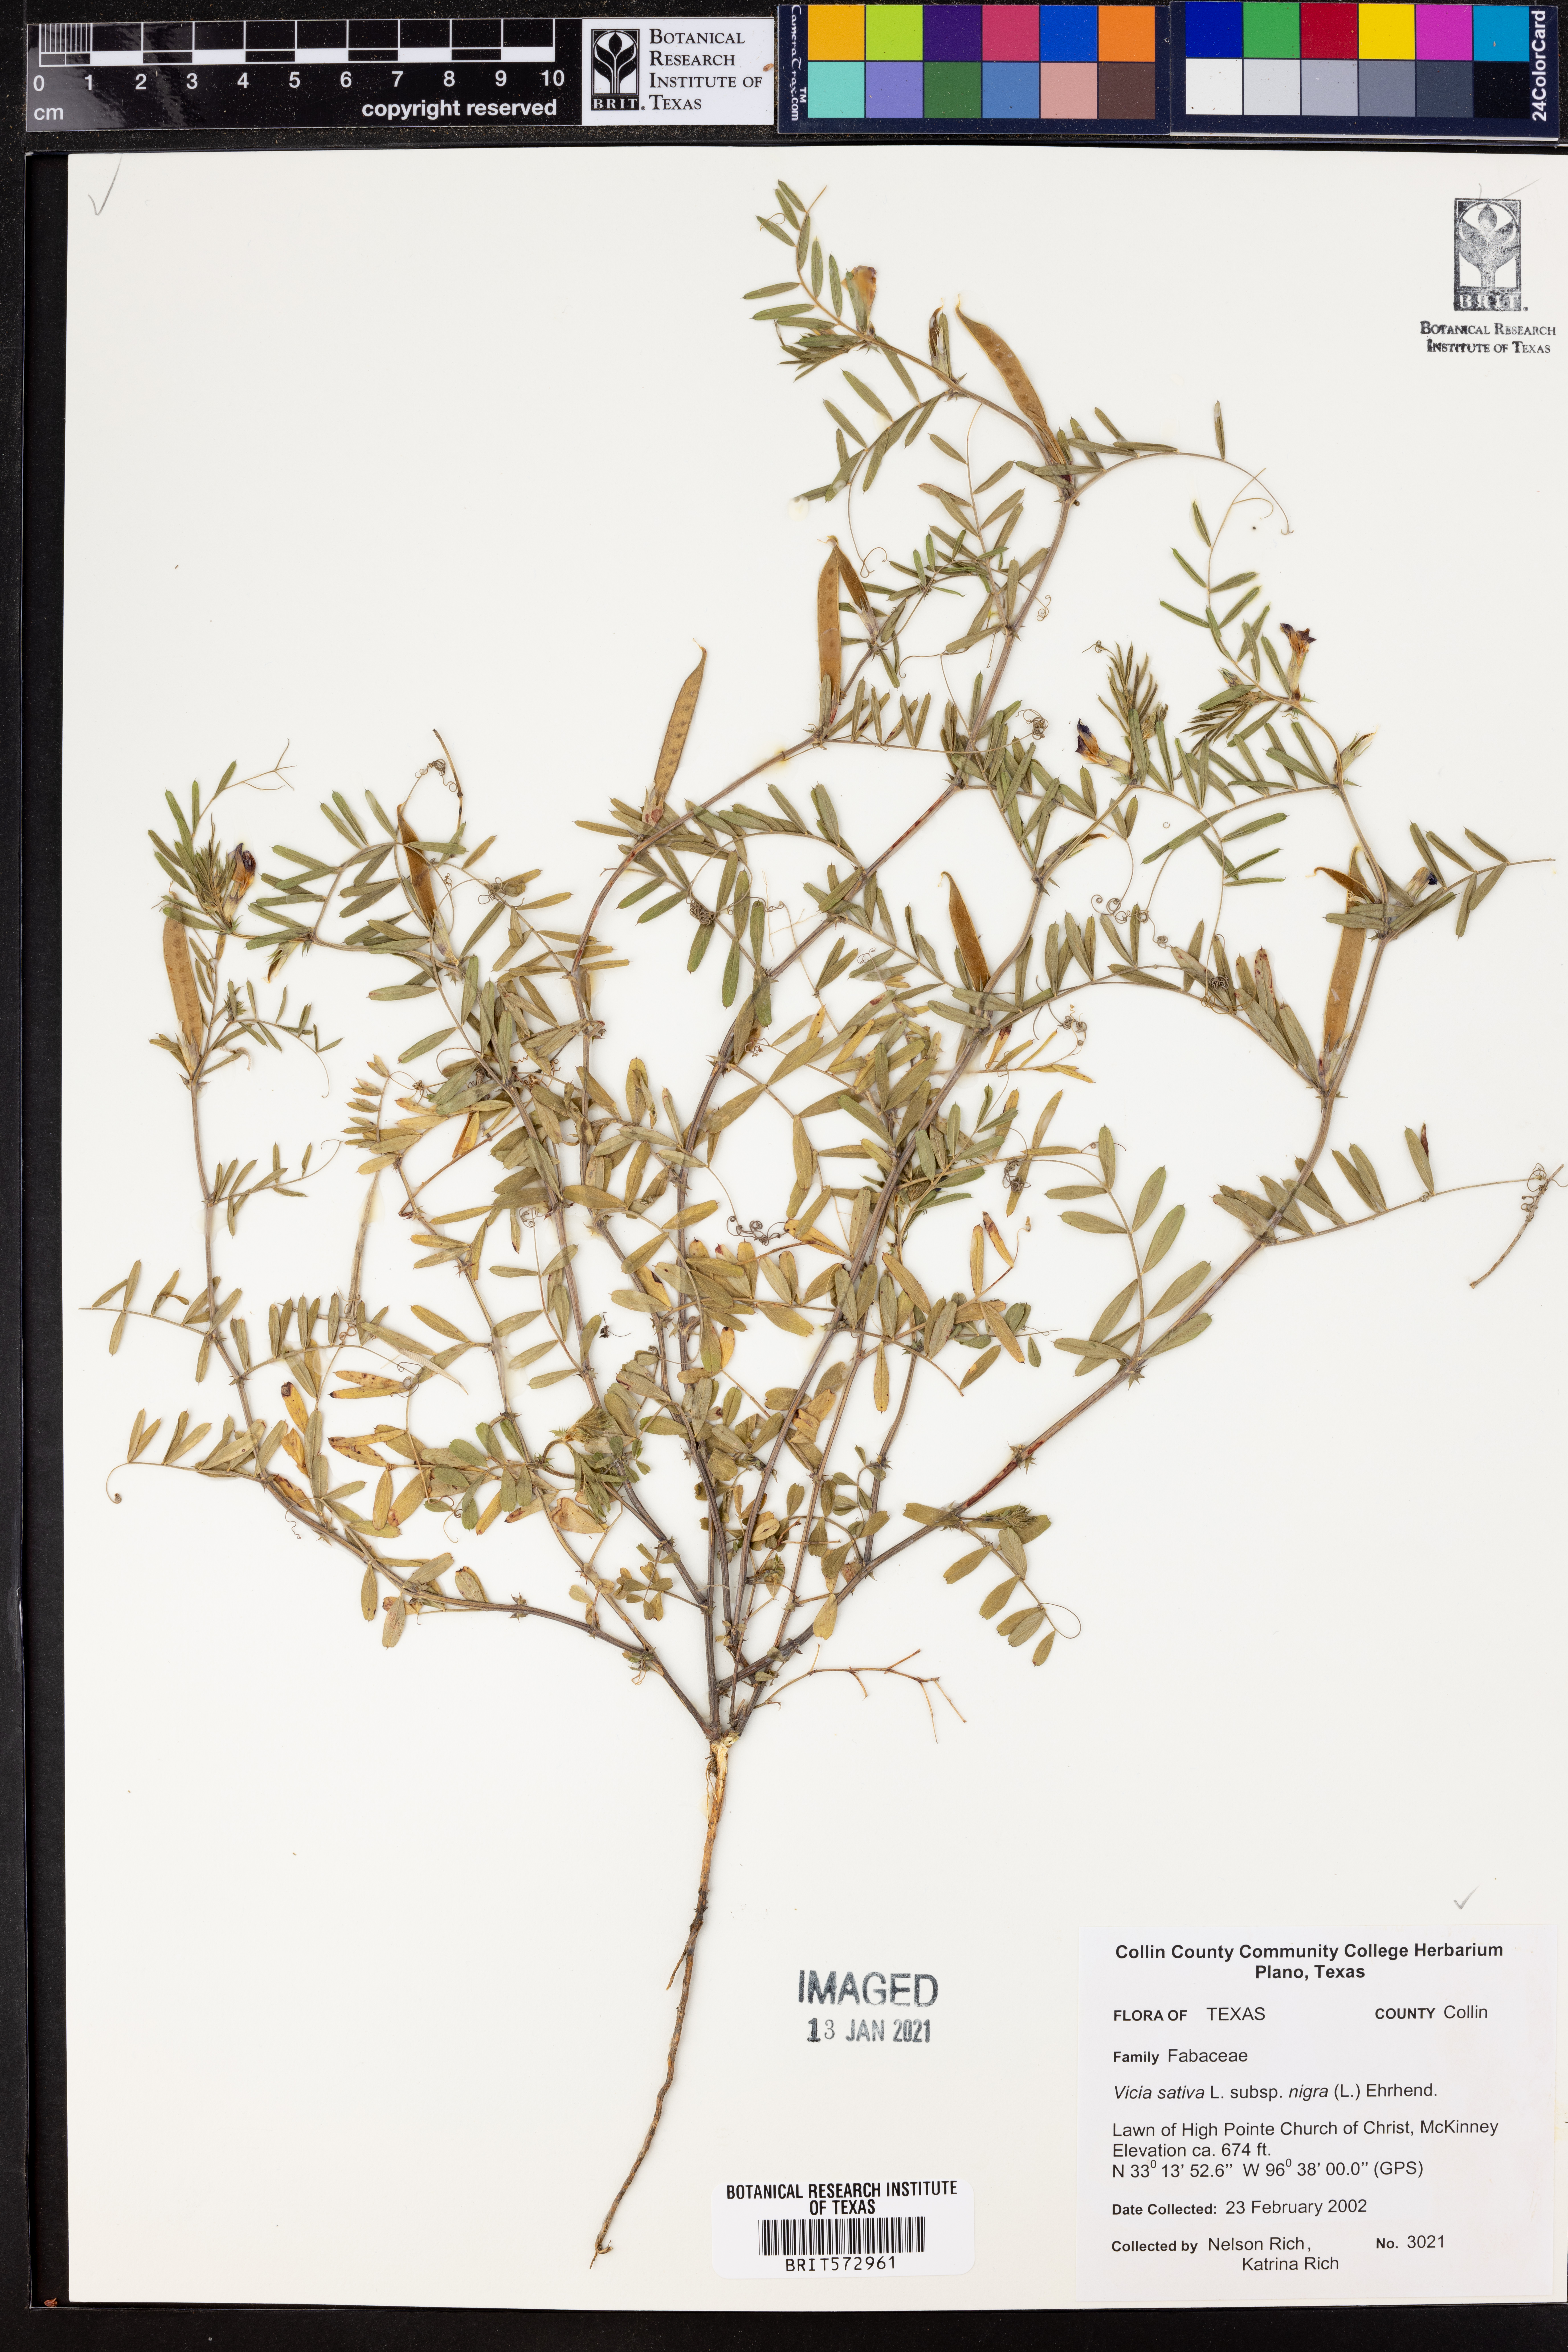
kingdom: Plantae
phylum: Tracheophyta
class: Magnoliopsida
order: Fabales
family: Fabaceae
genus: Vicia
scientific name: Vicia sativa
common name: Garden vetch
